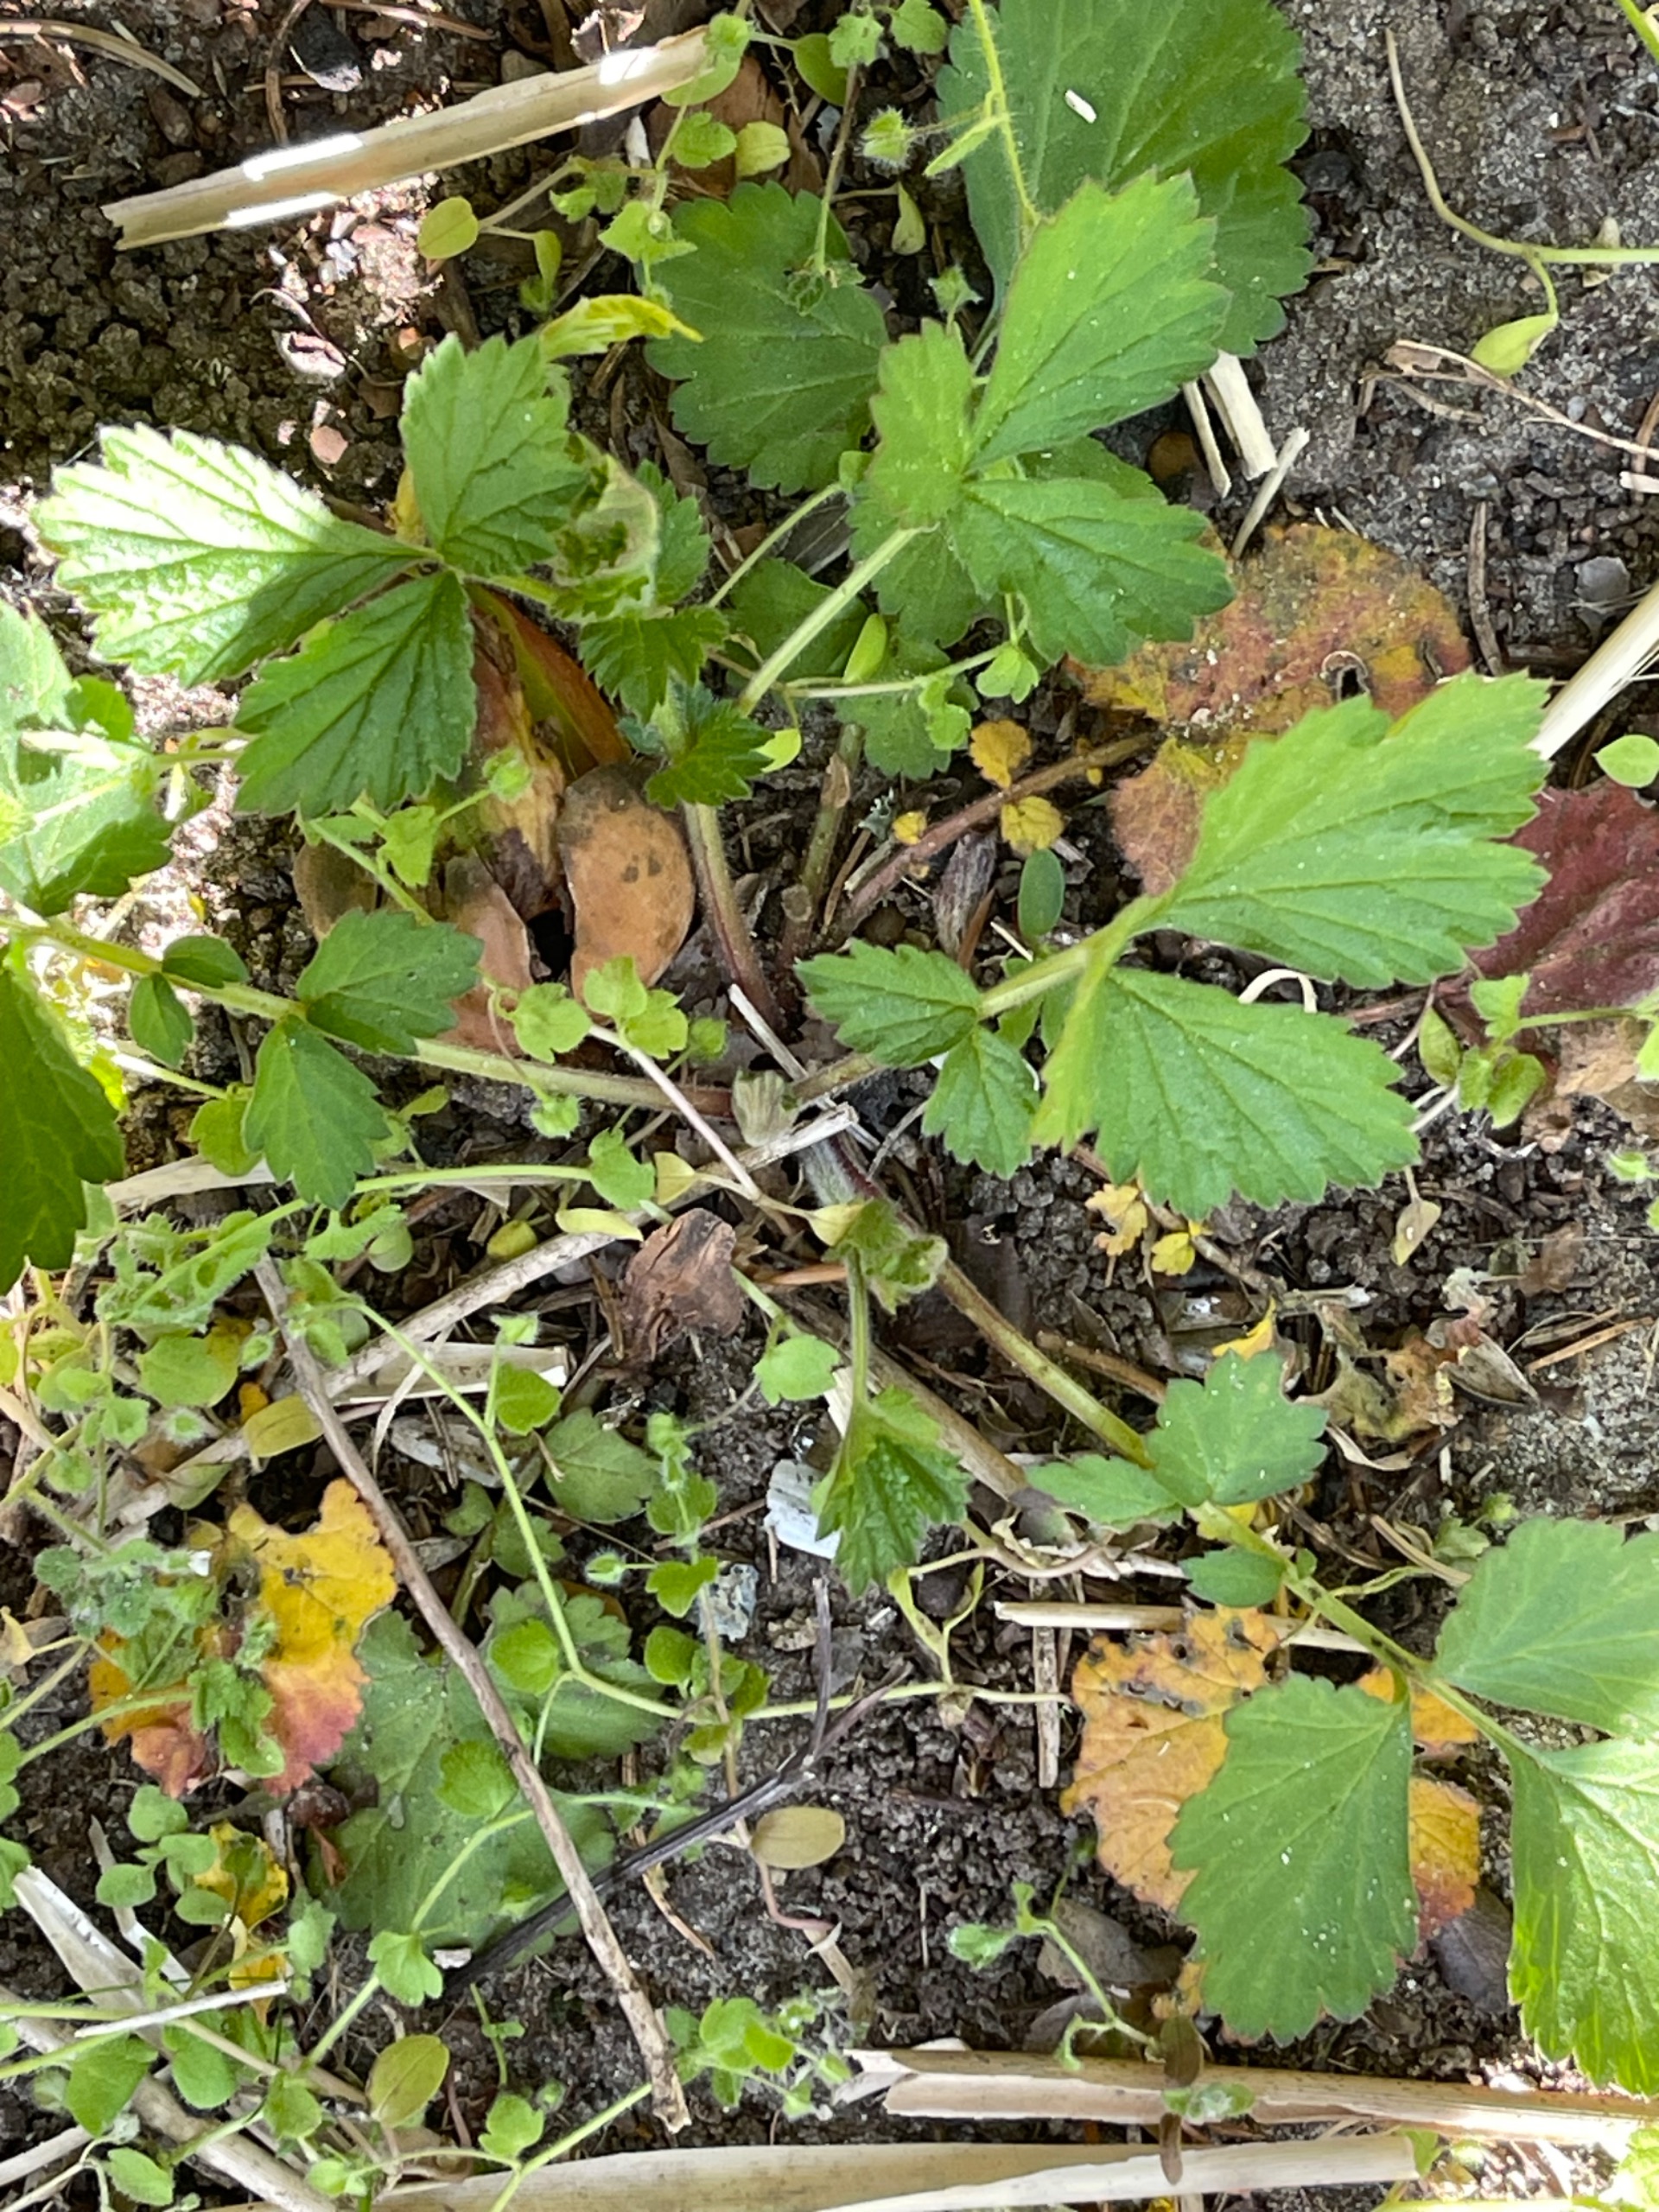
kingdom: Plantae
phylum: Tracheophyta
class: Magnoliopsida
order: Rosales
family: Rosaceae
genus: Geum
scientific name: Geum urbanum
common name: Feber-nellikerod
